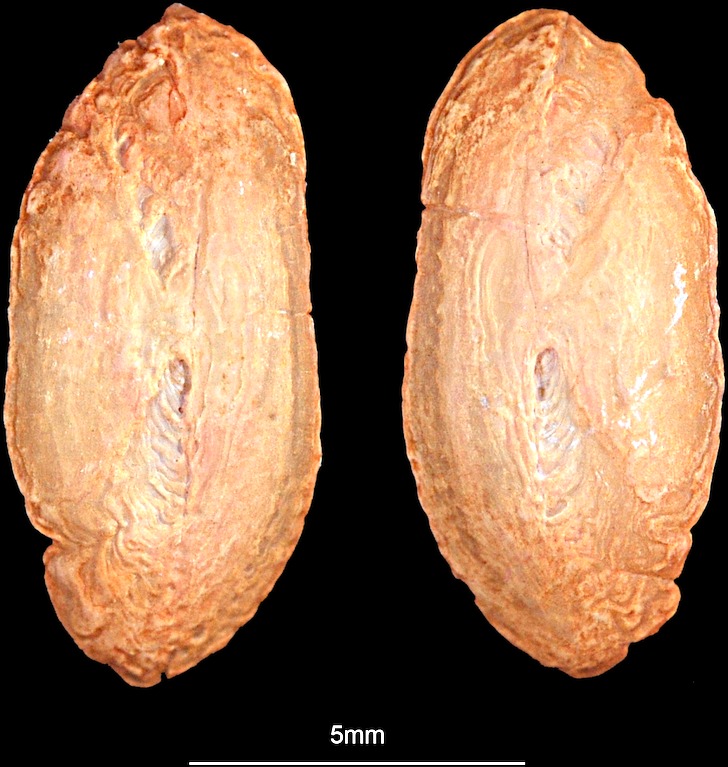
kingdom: Animalia
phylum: Chordata
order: Gadiformes
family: Lotidae
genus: Brosme
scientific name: Brosme brosme
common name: Cusk
